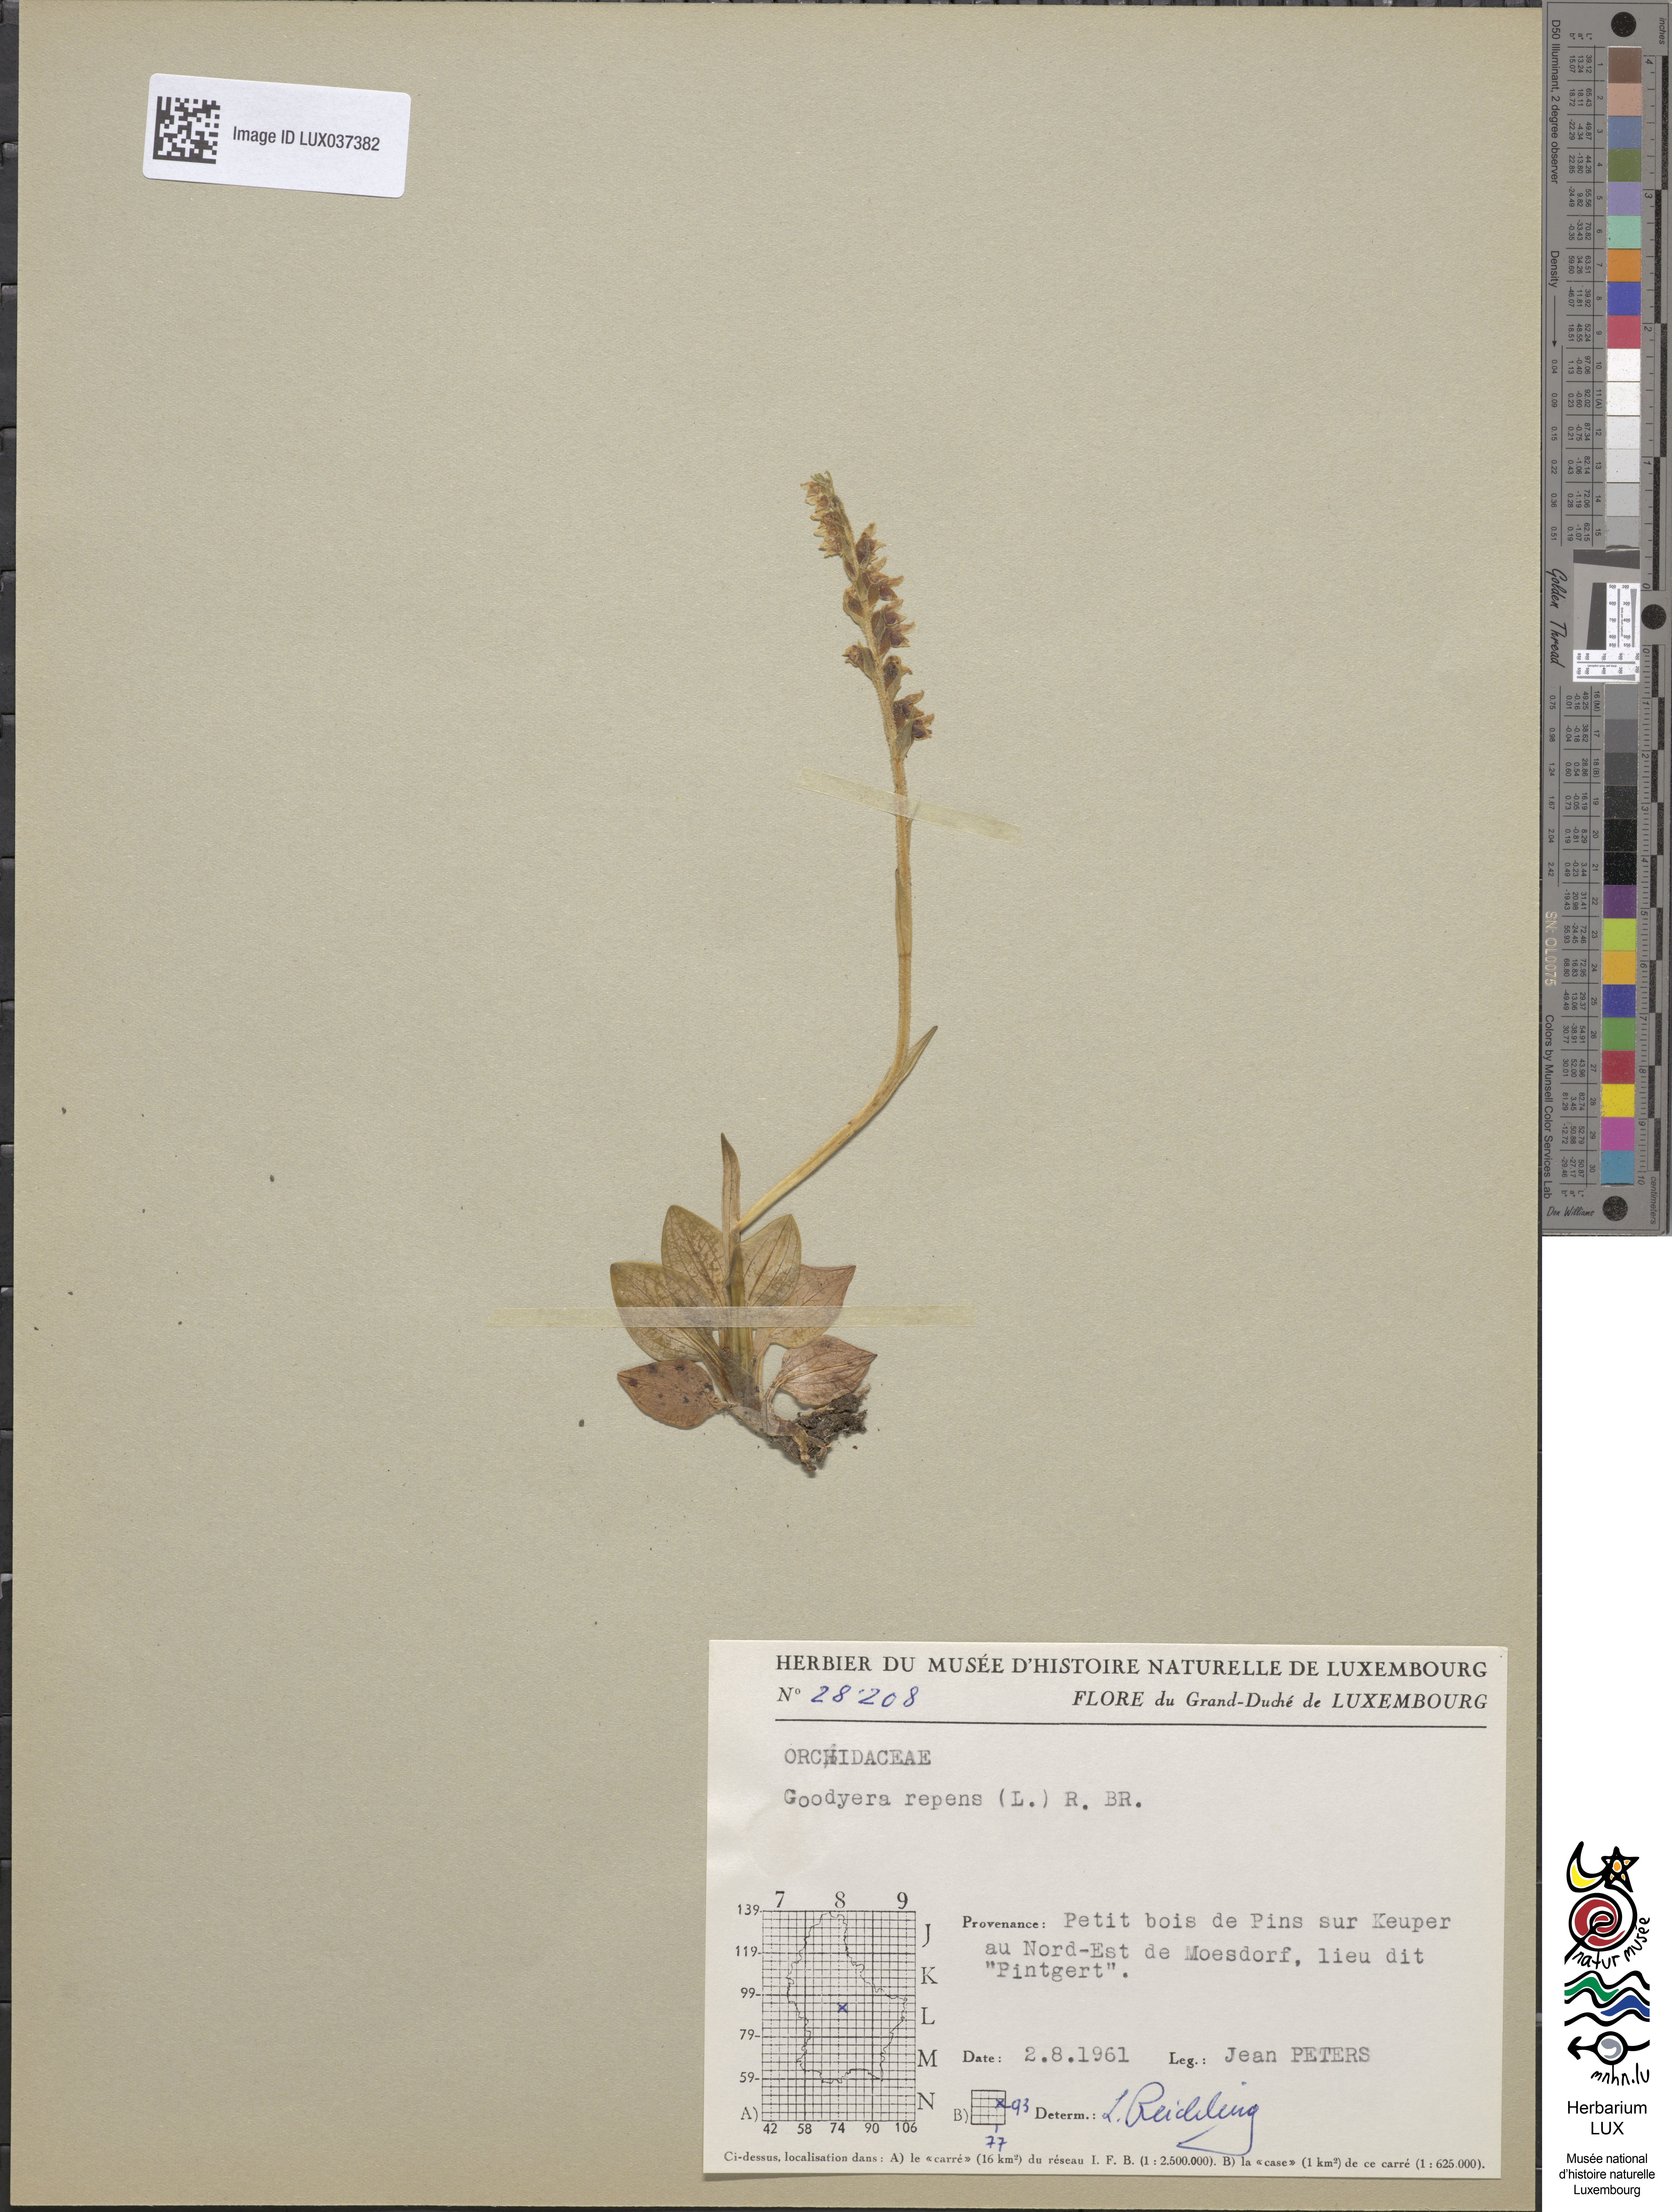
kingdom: Plantae
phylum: Tracheophyta
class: Liliopsida
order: Asparagales
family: Orchidaceae
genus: Goodyera
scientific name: Goodyera repens
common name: Creeping lady's-tresses
